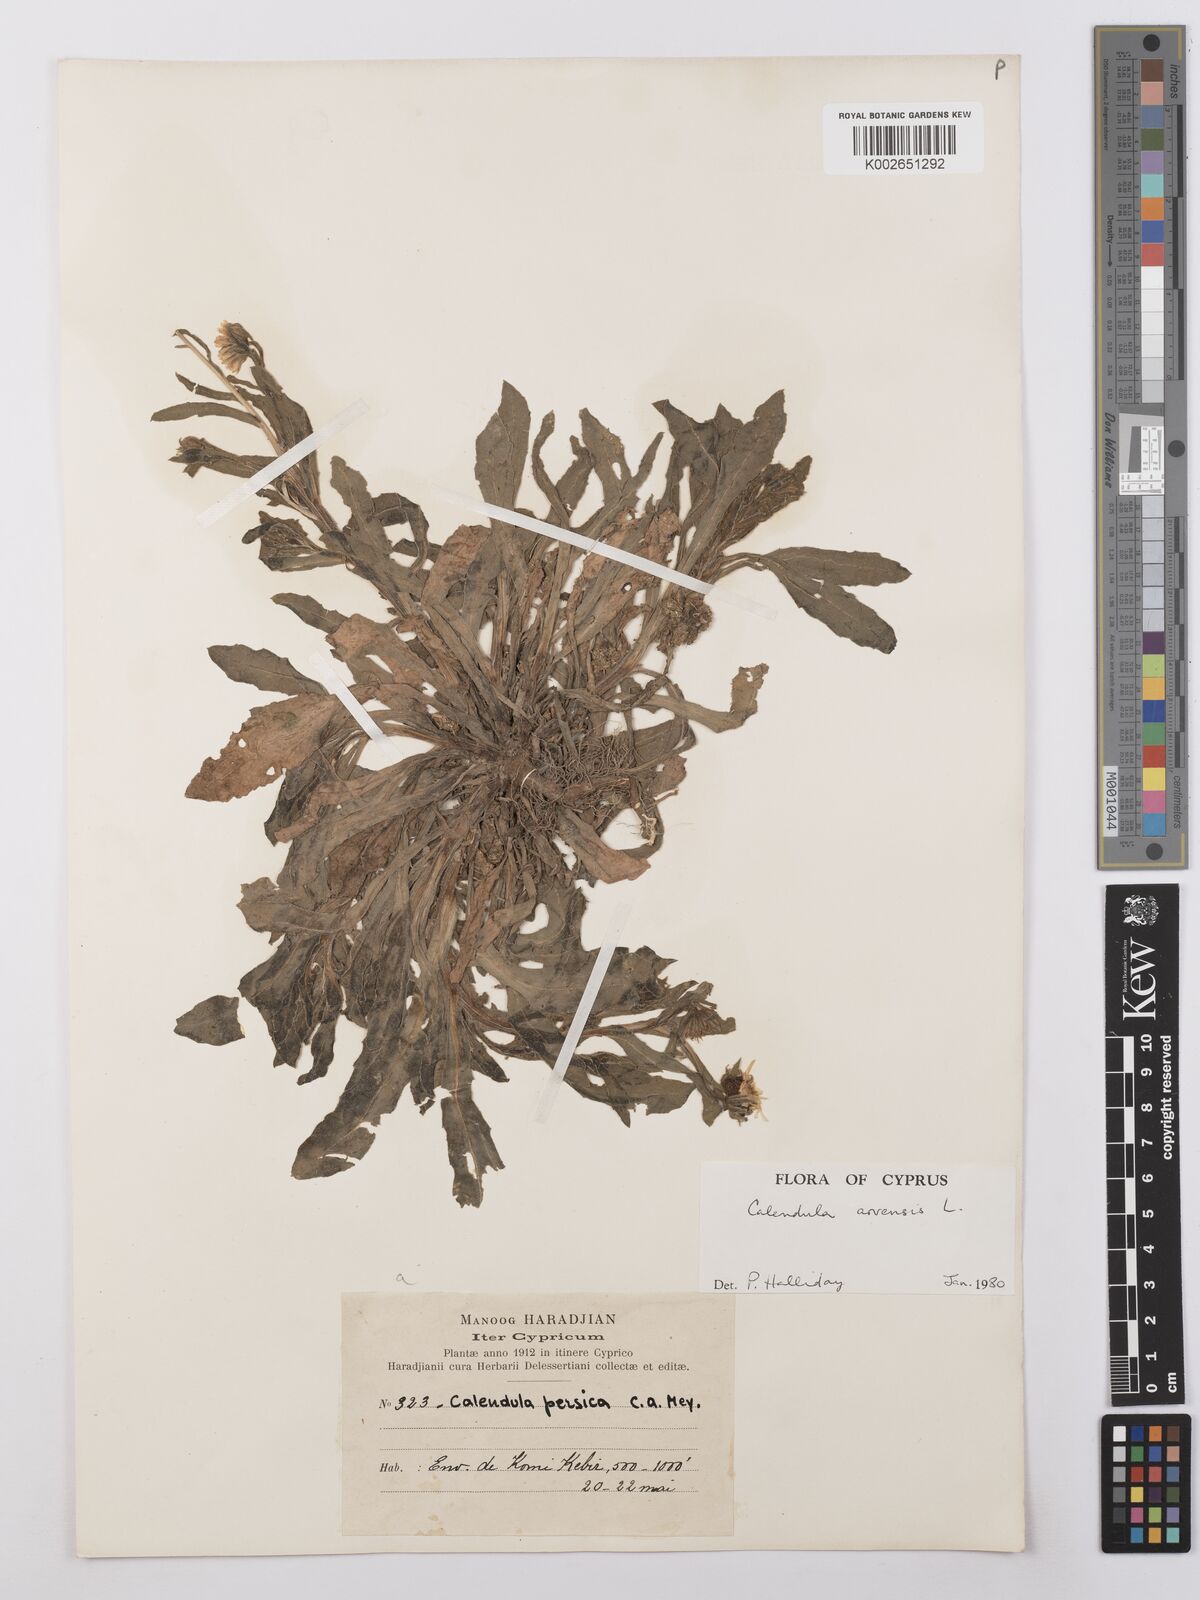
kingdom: Plantae
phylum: Tracheophyta
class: Magnoliopsida
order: Asterales
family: Asteraceae
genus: Calendula
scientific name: Calendula arvensis
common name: Field marigold
